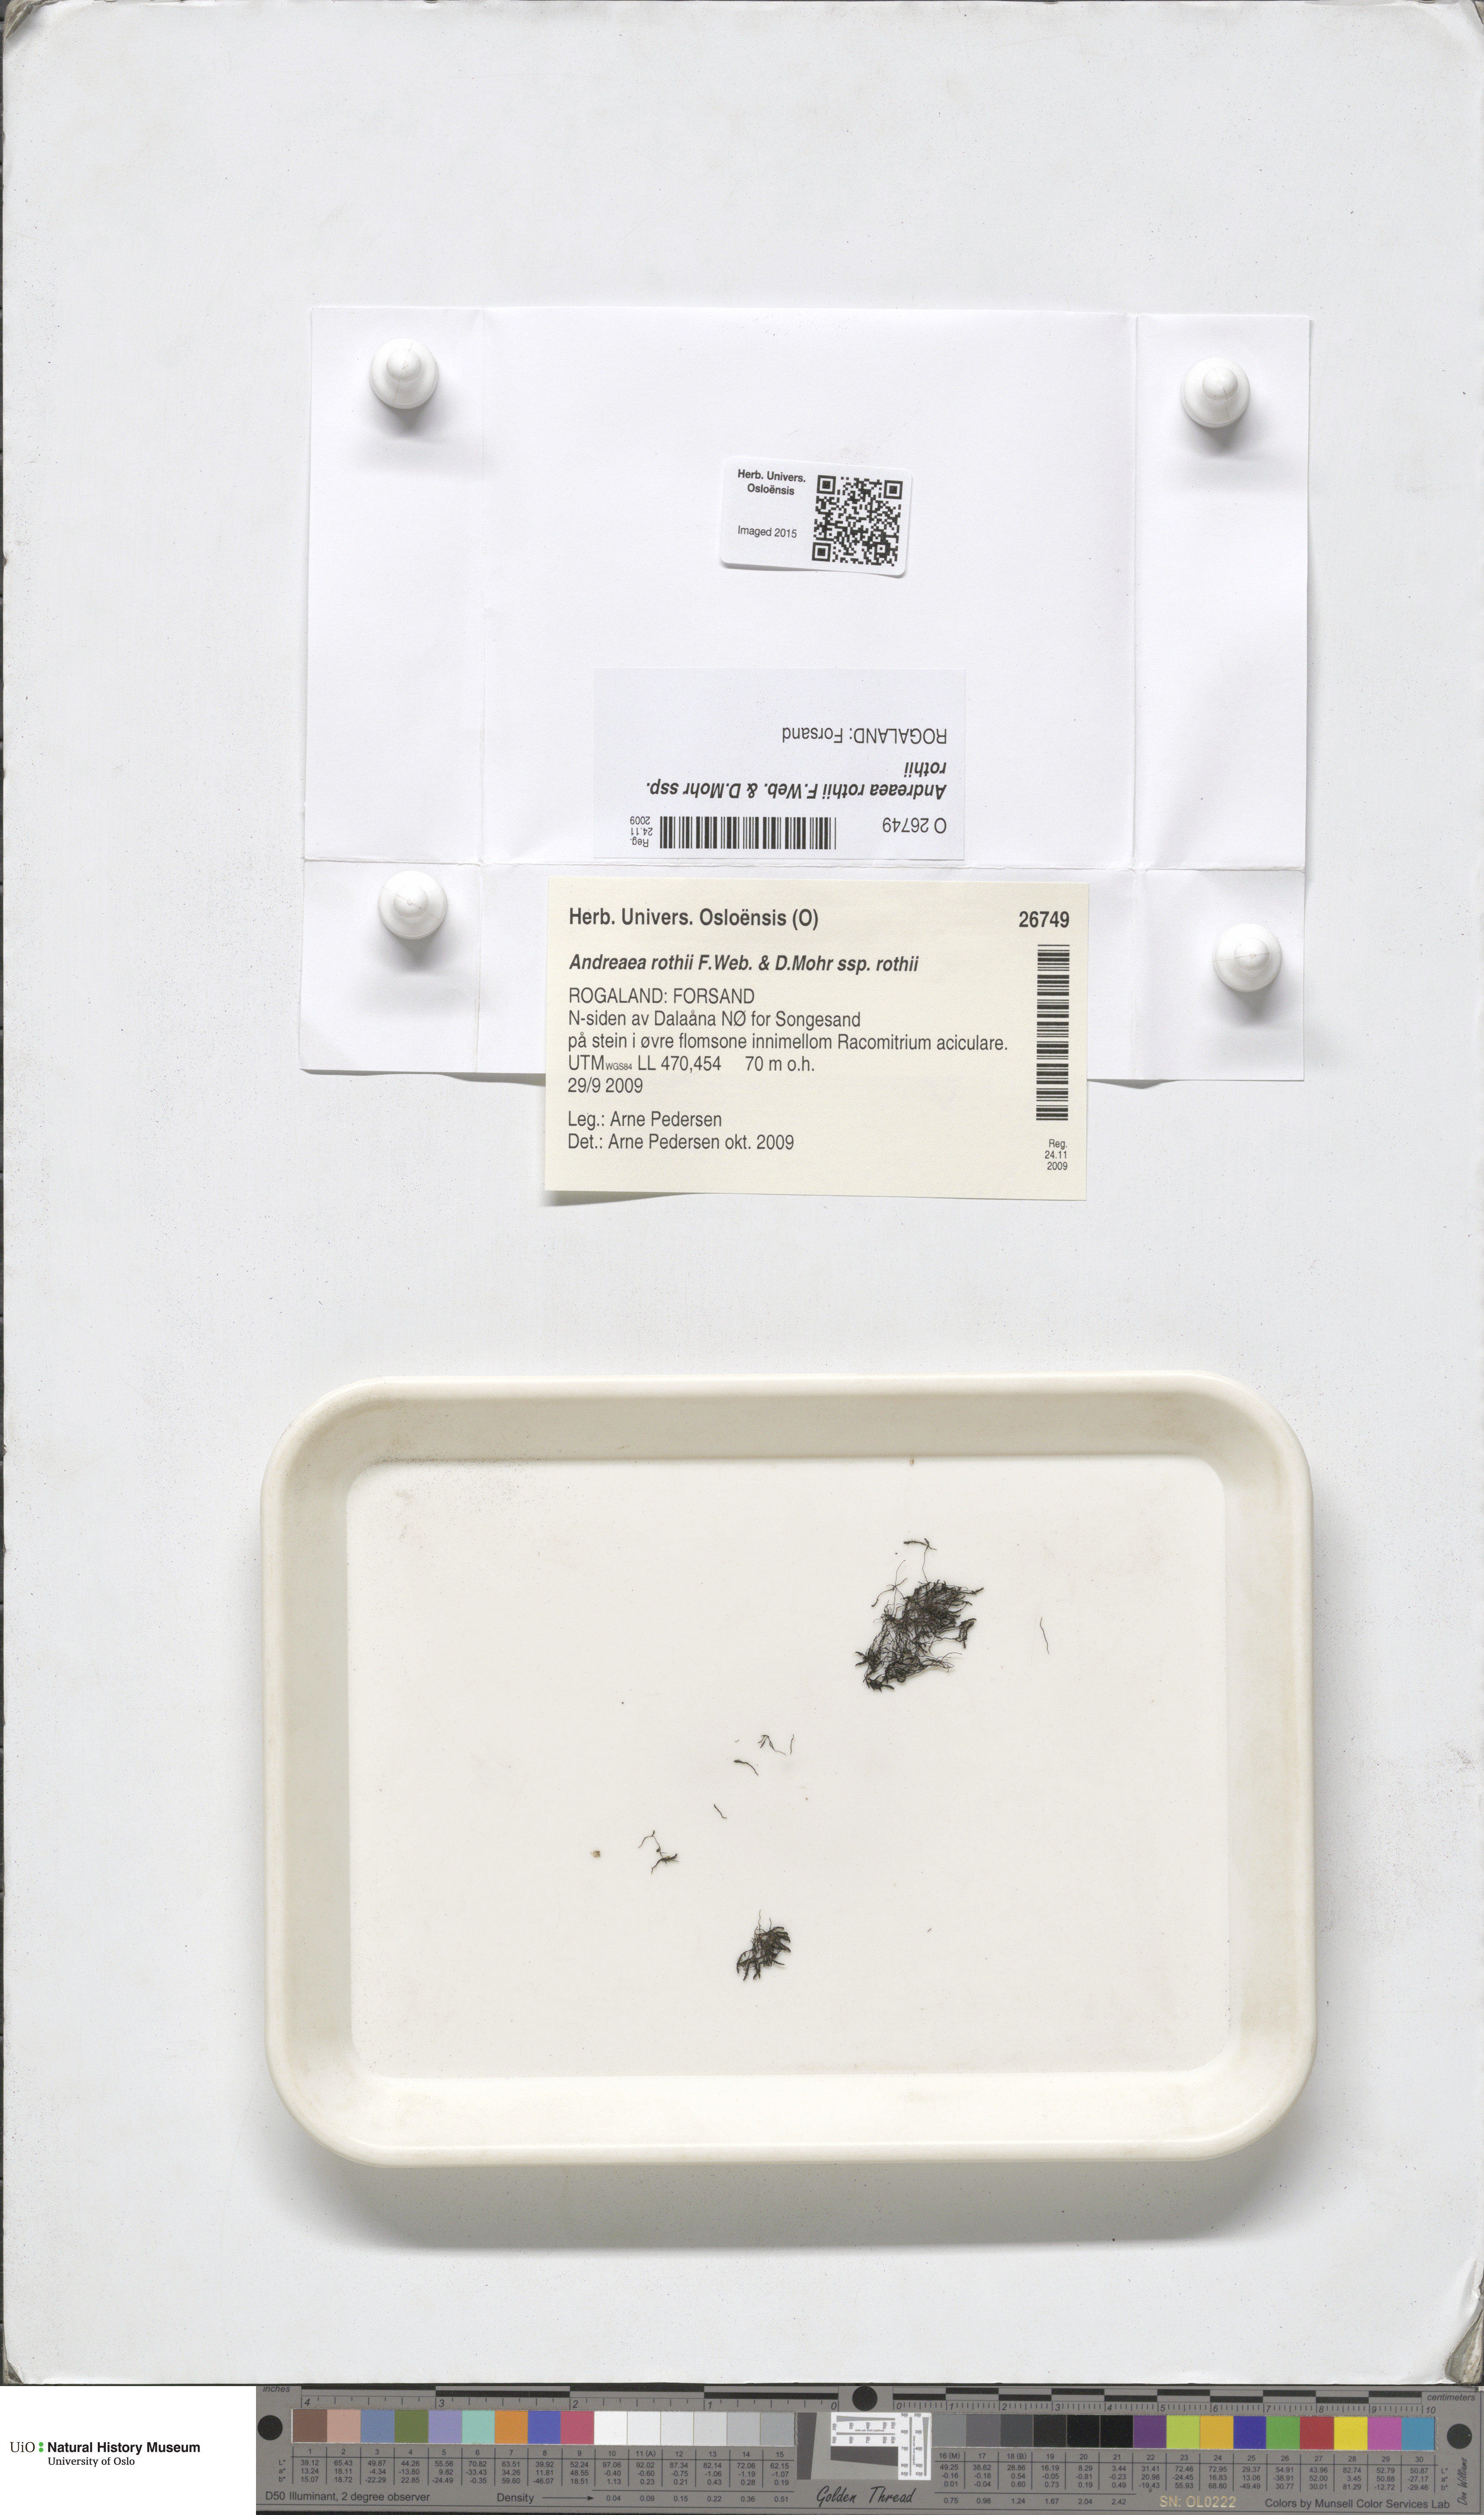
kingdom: Plantae
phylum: Bryophyta
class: Andreaeopsida
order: Andreaeales
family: Andreaeaceae
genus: Andreaea
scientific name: Andreaea rothii
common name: Dusky rock moss
